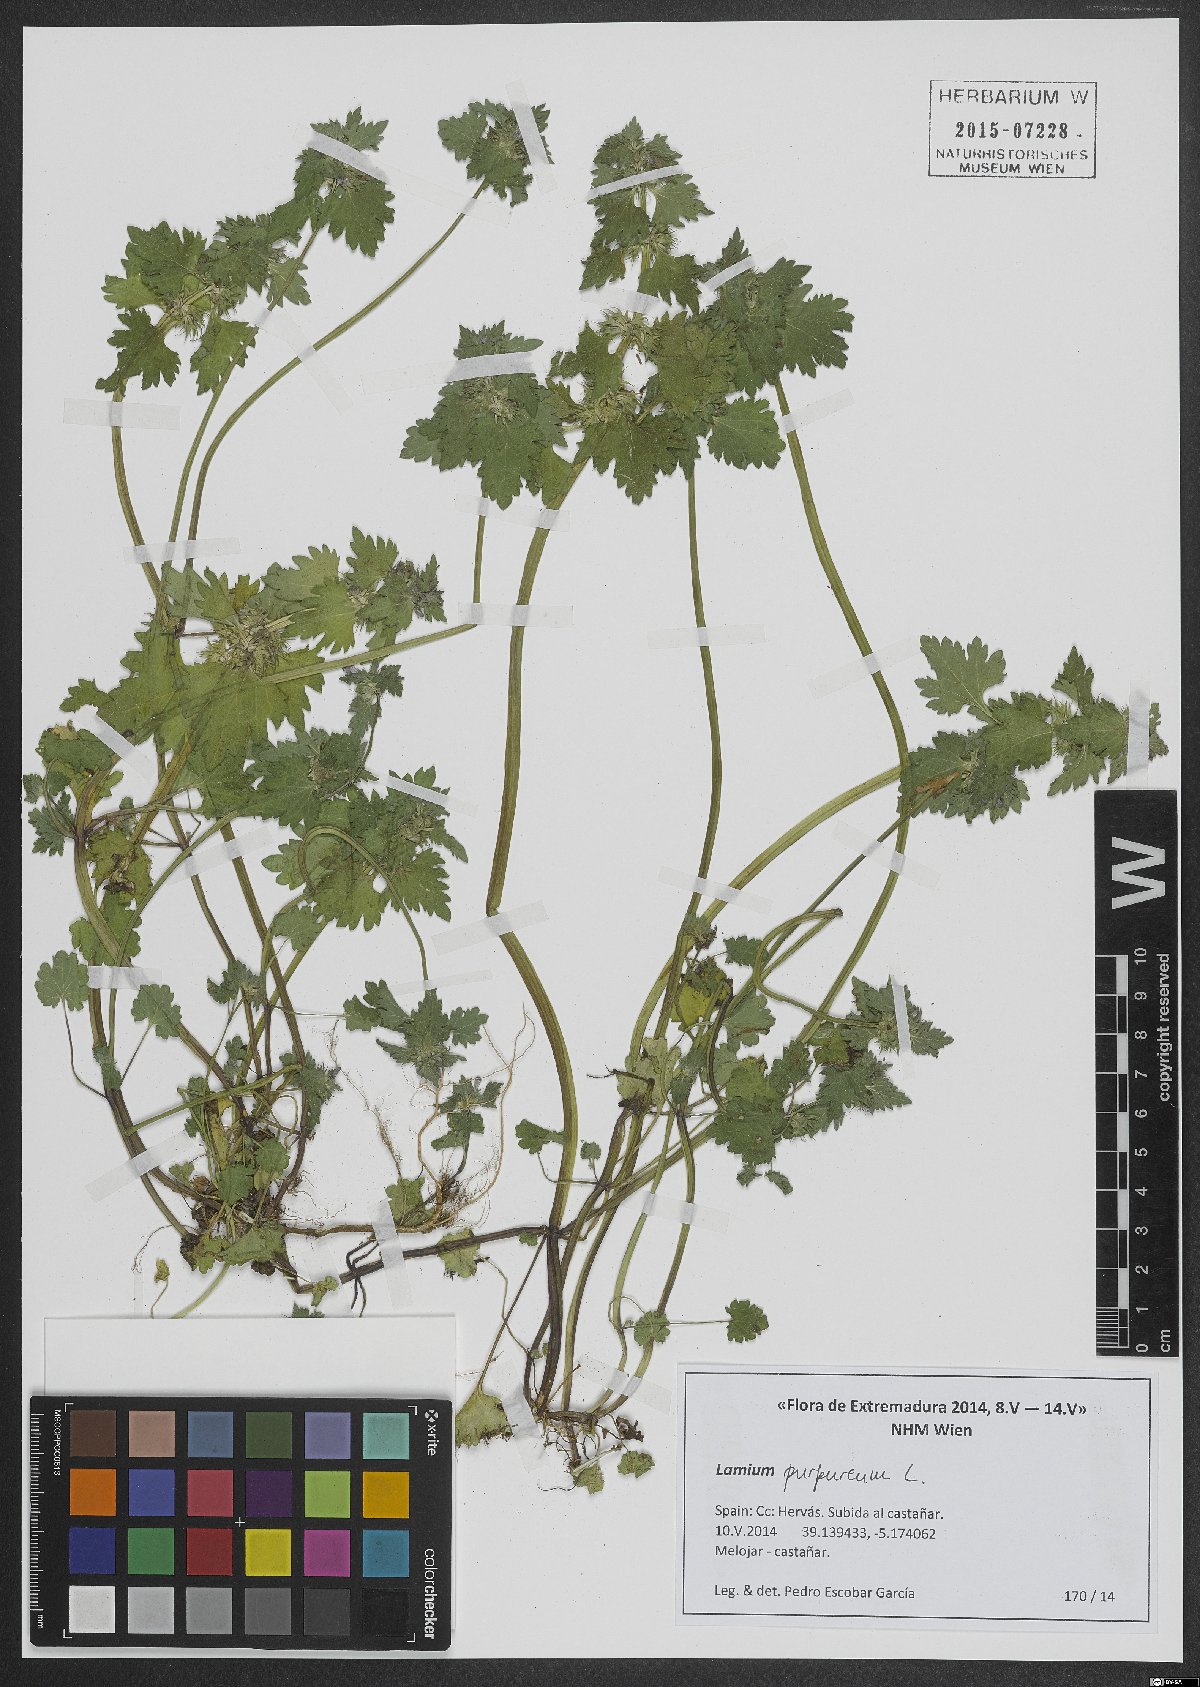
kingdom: Plantae
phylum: Tracheophyta
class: Magnoliopsida
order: Lamiales
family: Lamiaceae
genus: Lamium
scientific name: Lamium purpureum
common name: Red dead-nettle
